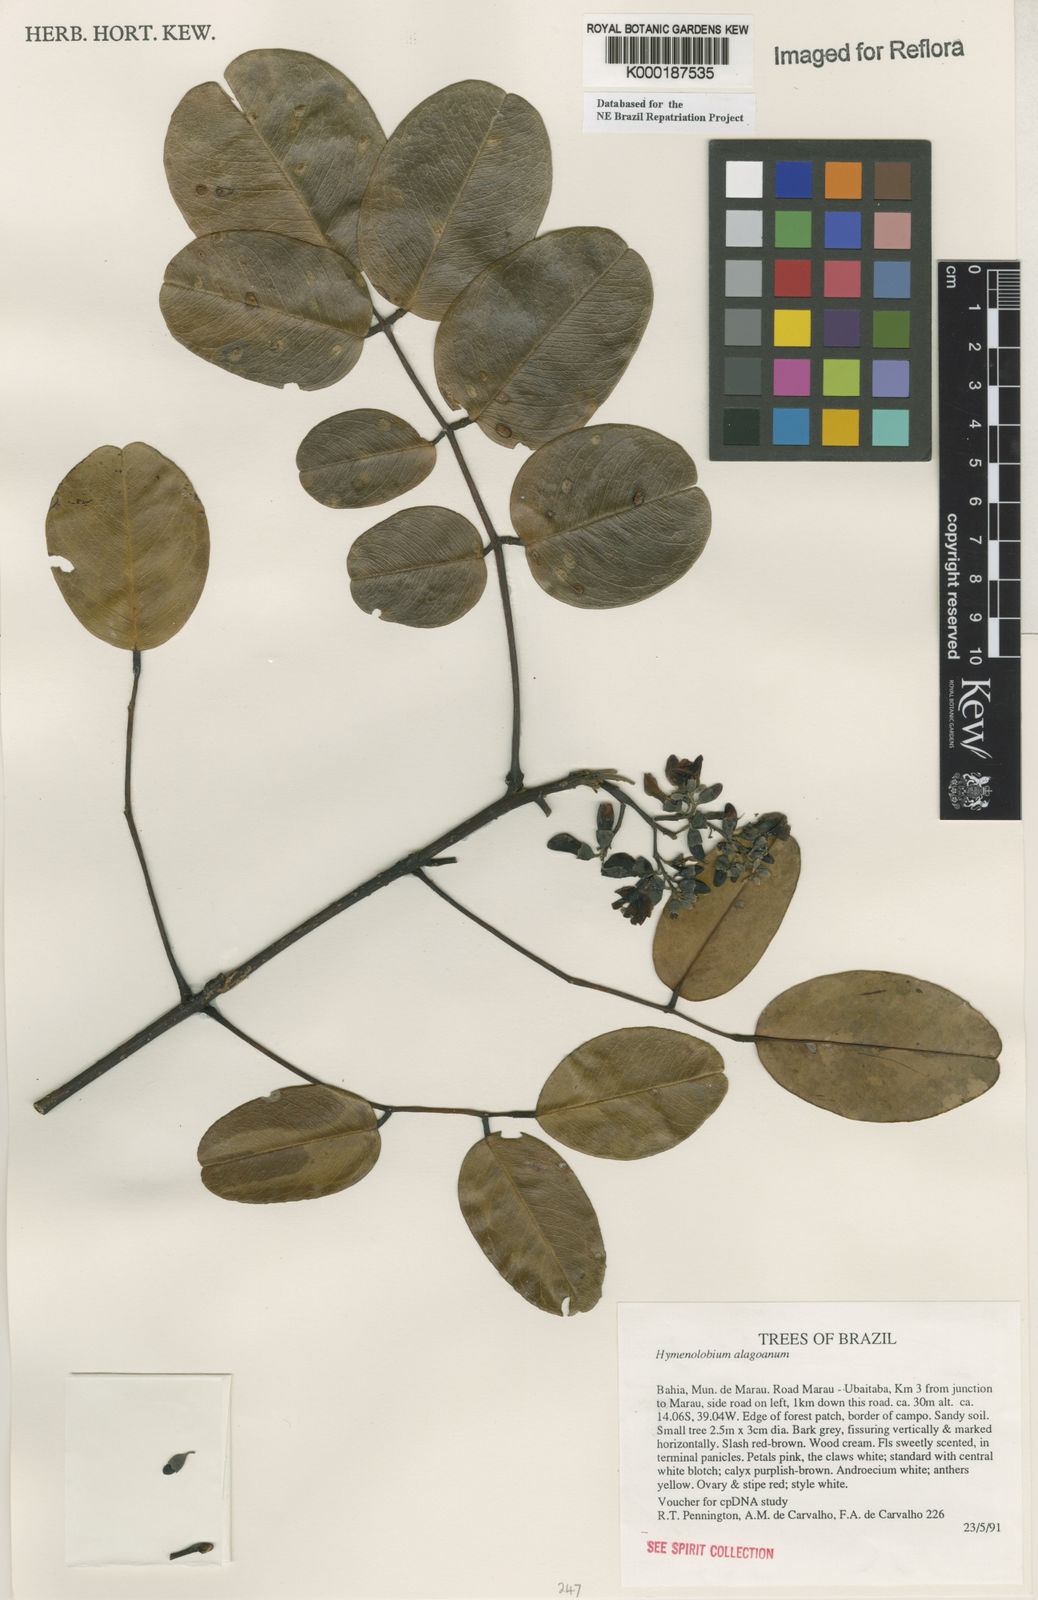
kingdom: Plantae
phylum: Tracheophyta
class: Magnoliopsida
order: Fabales
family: Fabaceae
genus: Hymenolobium
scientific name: Hymenolobium alagoanum
